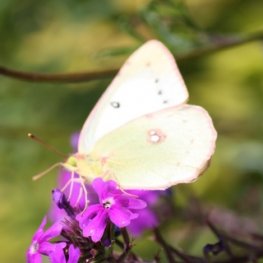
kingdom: Animalia
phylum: Arthropoda
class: Insecta
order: Lepidoptera
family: Pieridae
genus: Colias
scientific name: Colias philodice
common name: Clouded Sulphur
